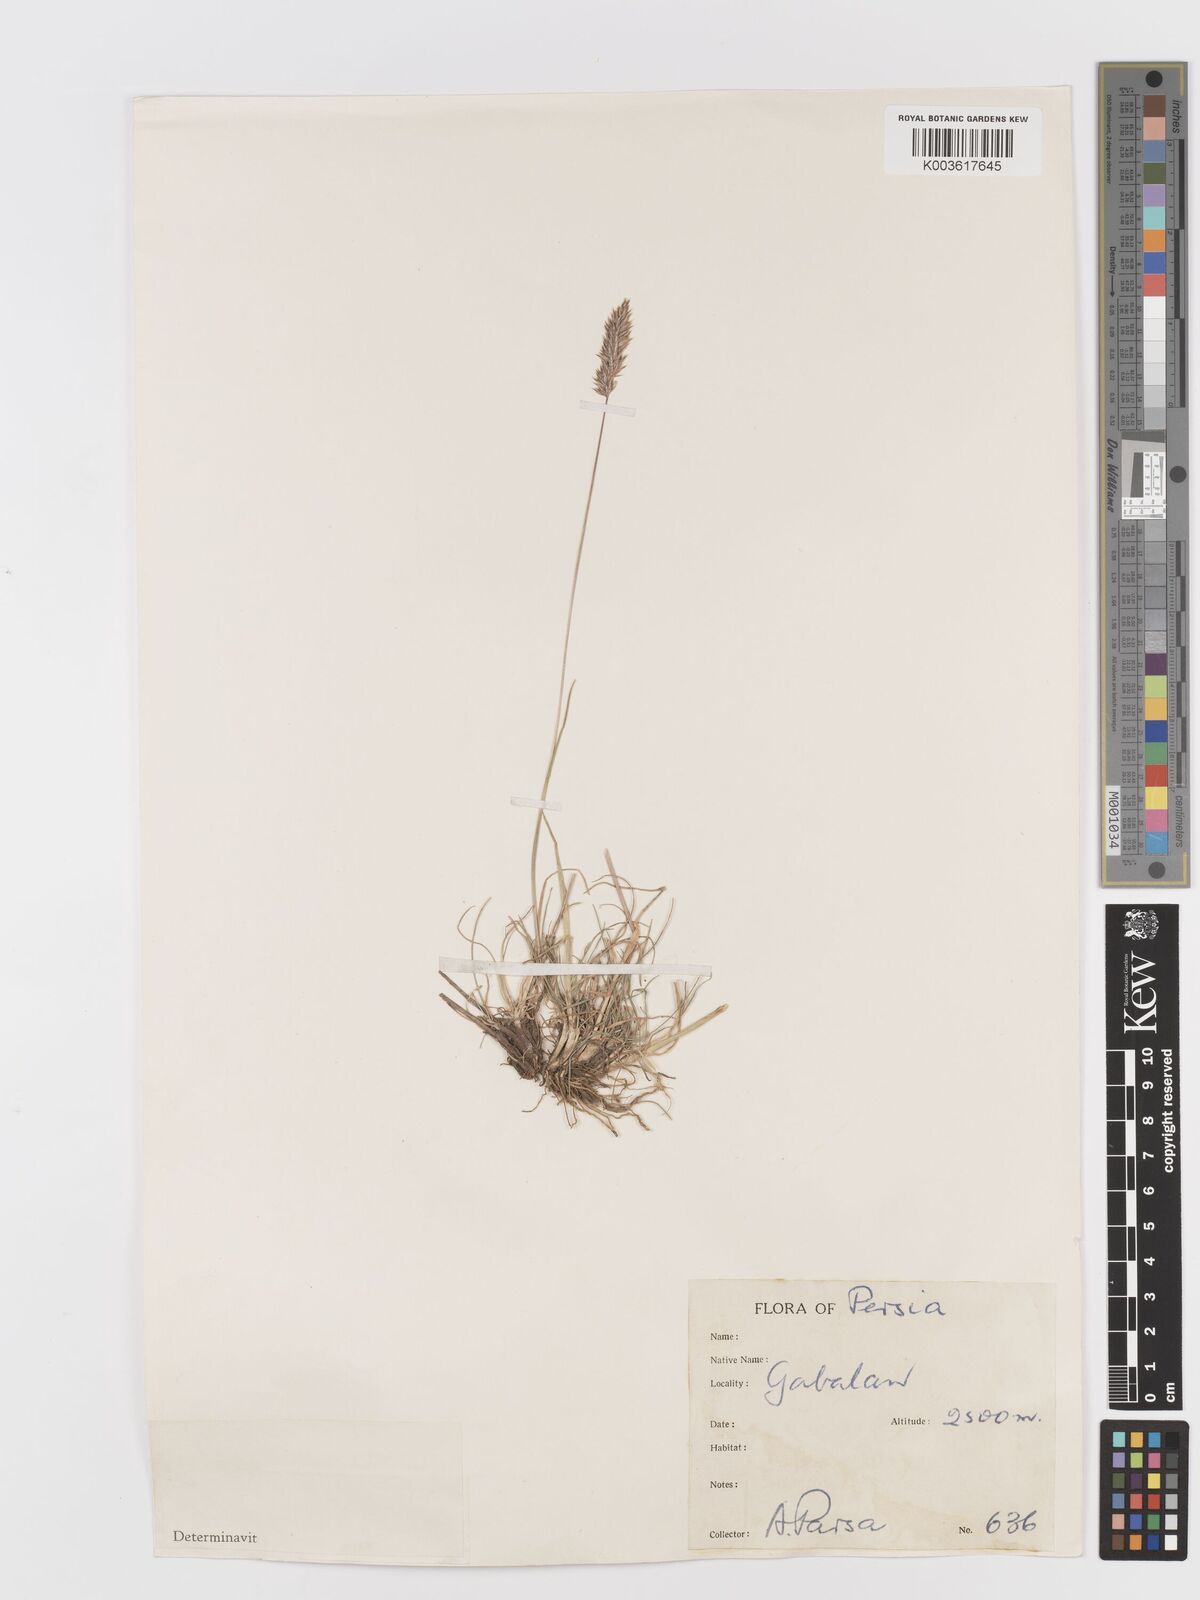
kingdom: Plantae
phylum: Tracheophyta
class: Liliopsida
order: Poales
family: Poaceae
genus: Koeleria
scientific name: Koeleria
